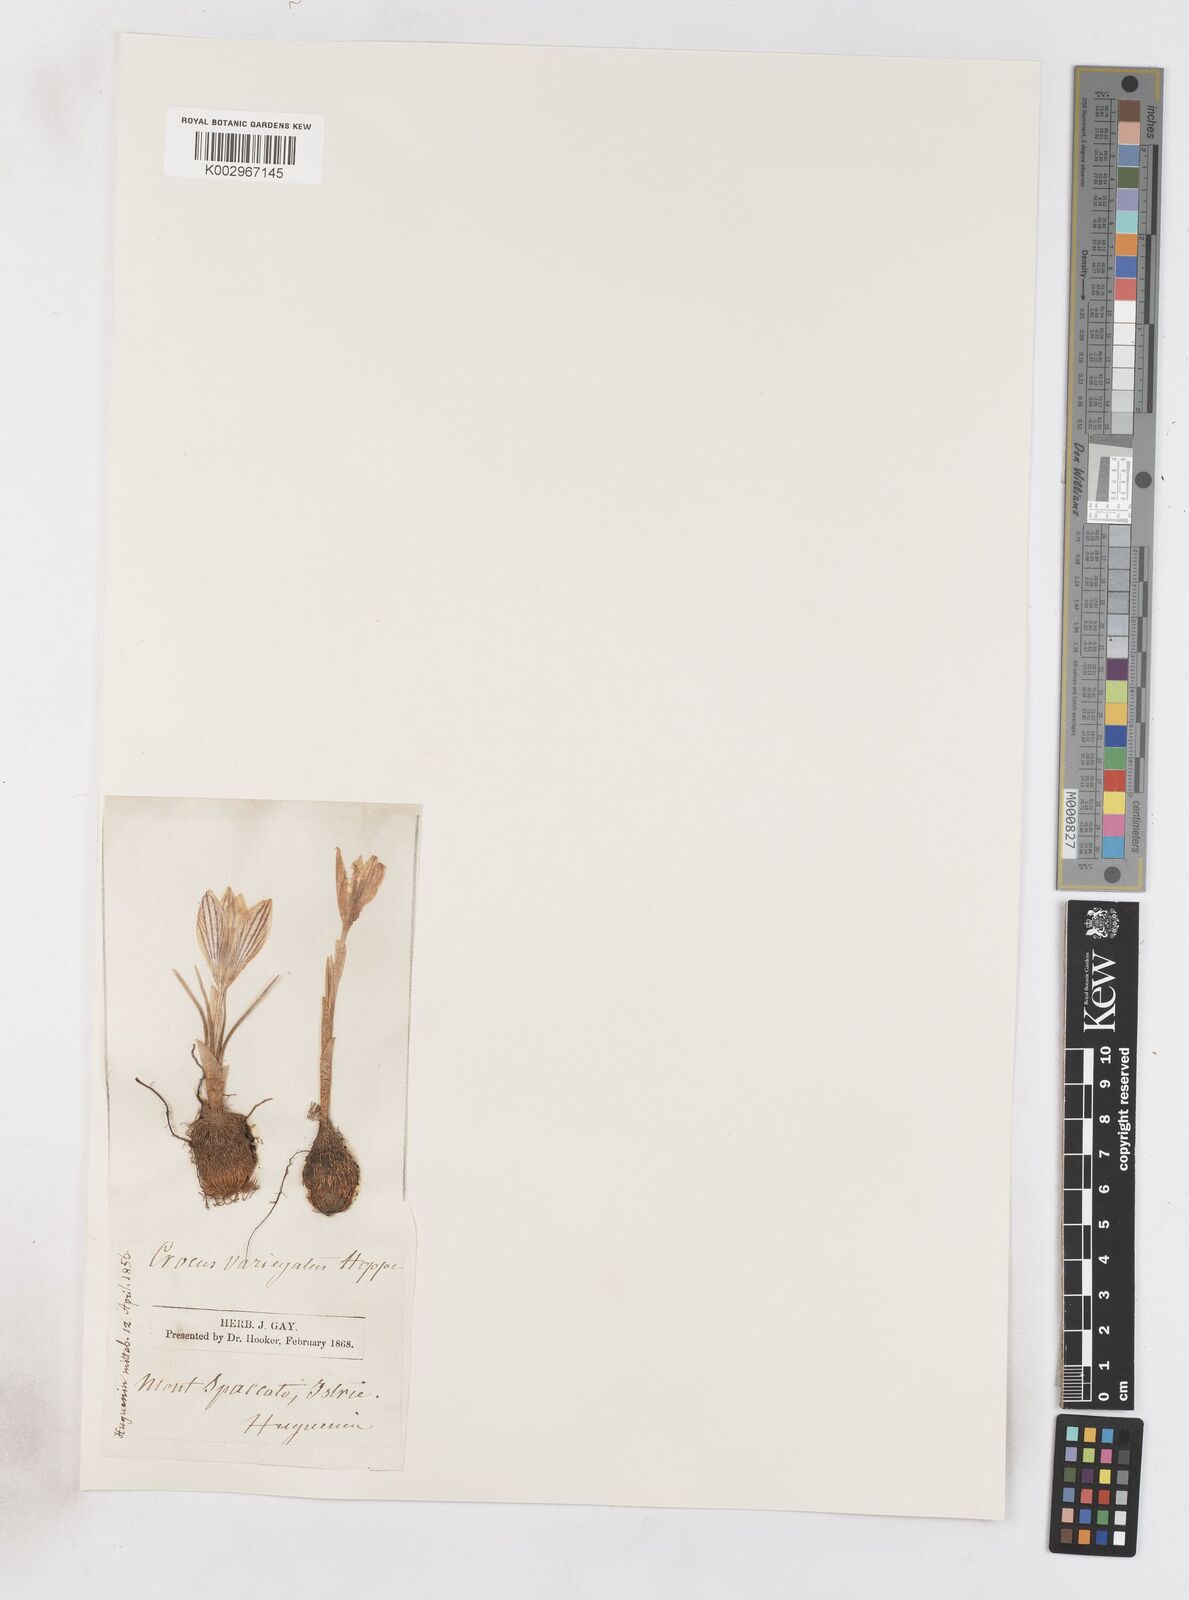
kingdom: Plantae
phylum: Tracheophyta
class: Liliopsida
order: Asparagales
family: Iridaceae
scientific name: Iridaceae
